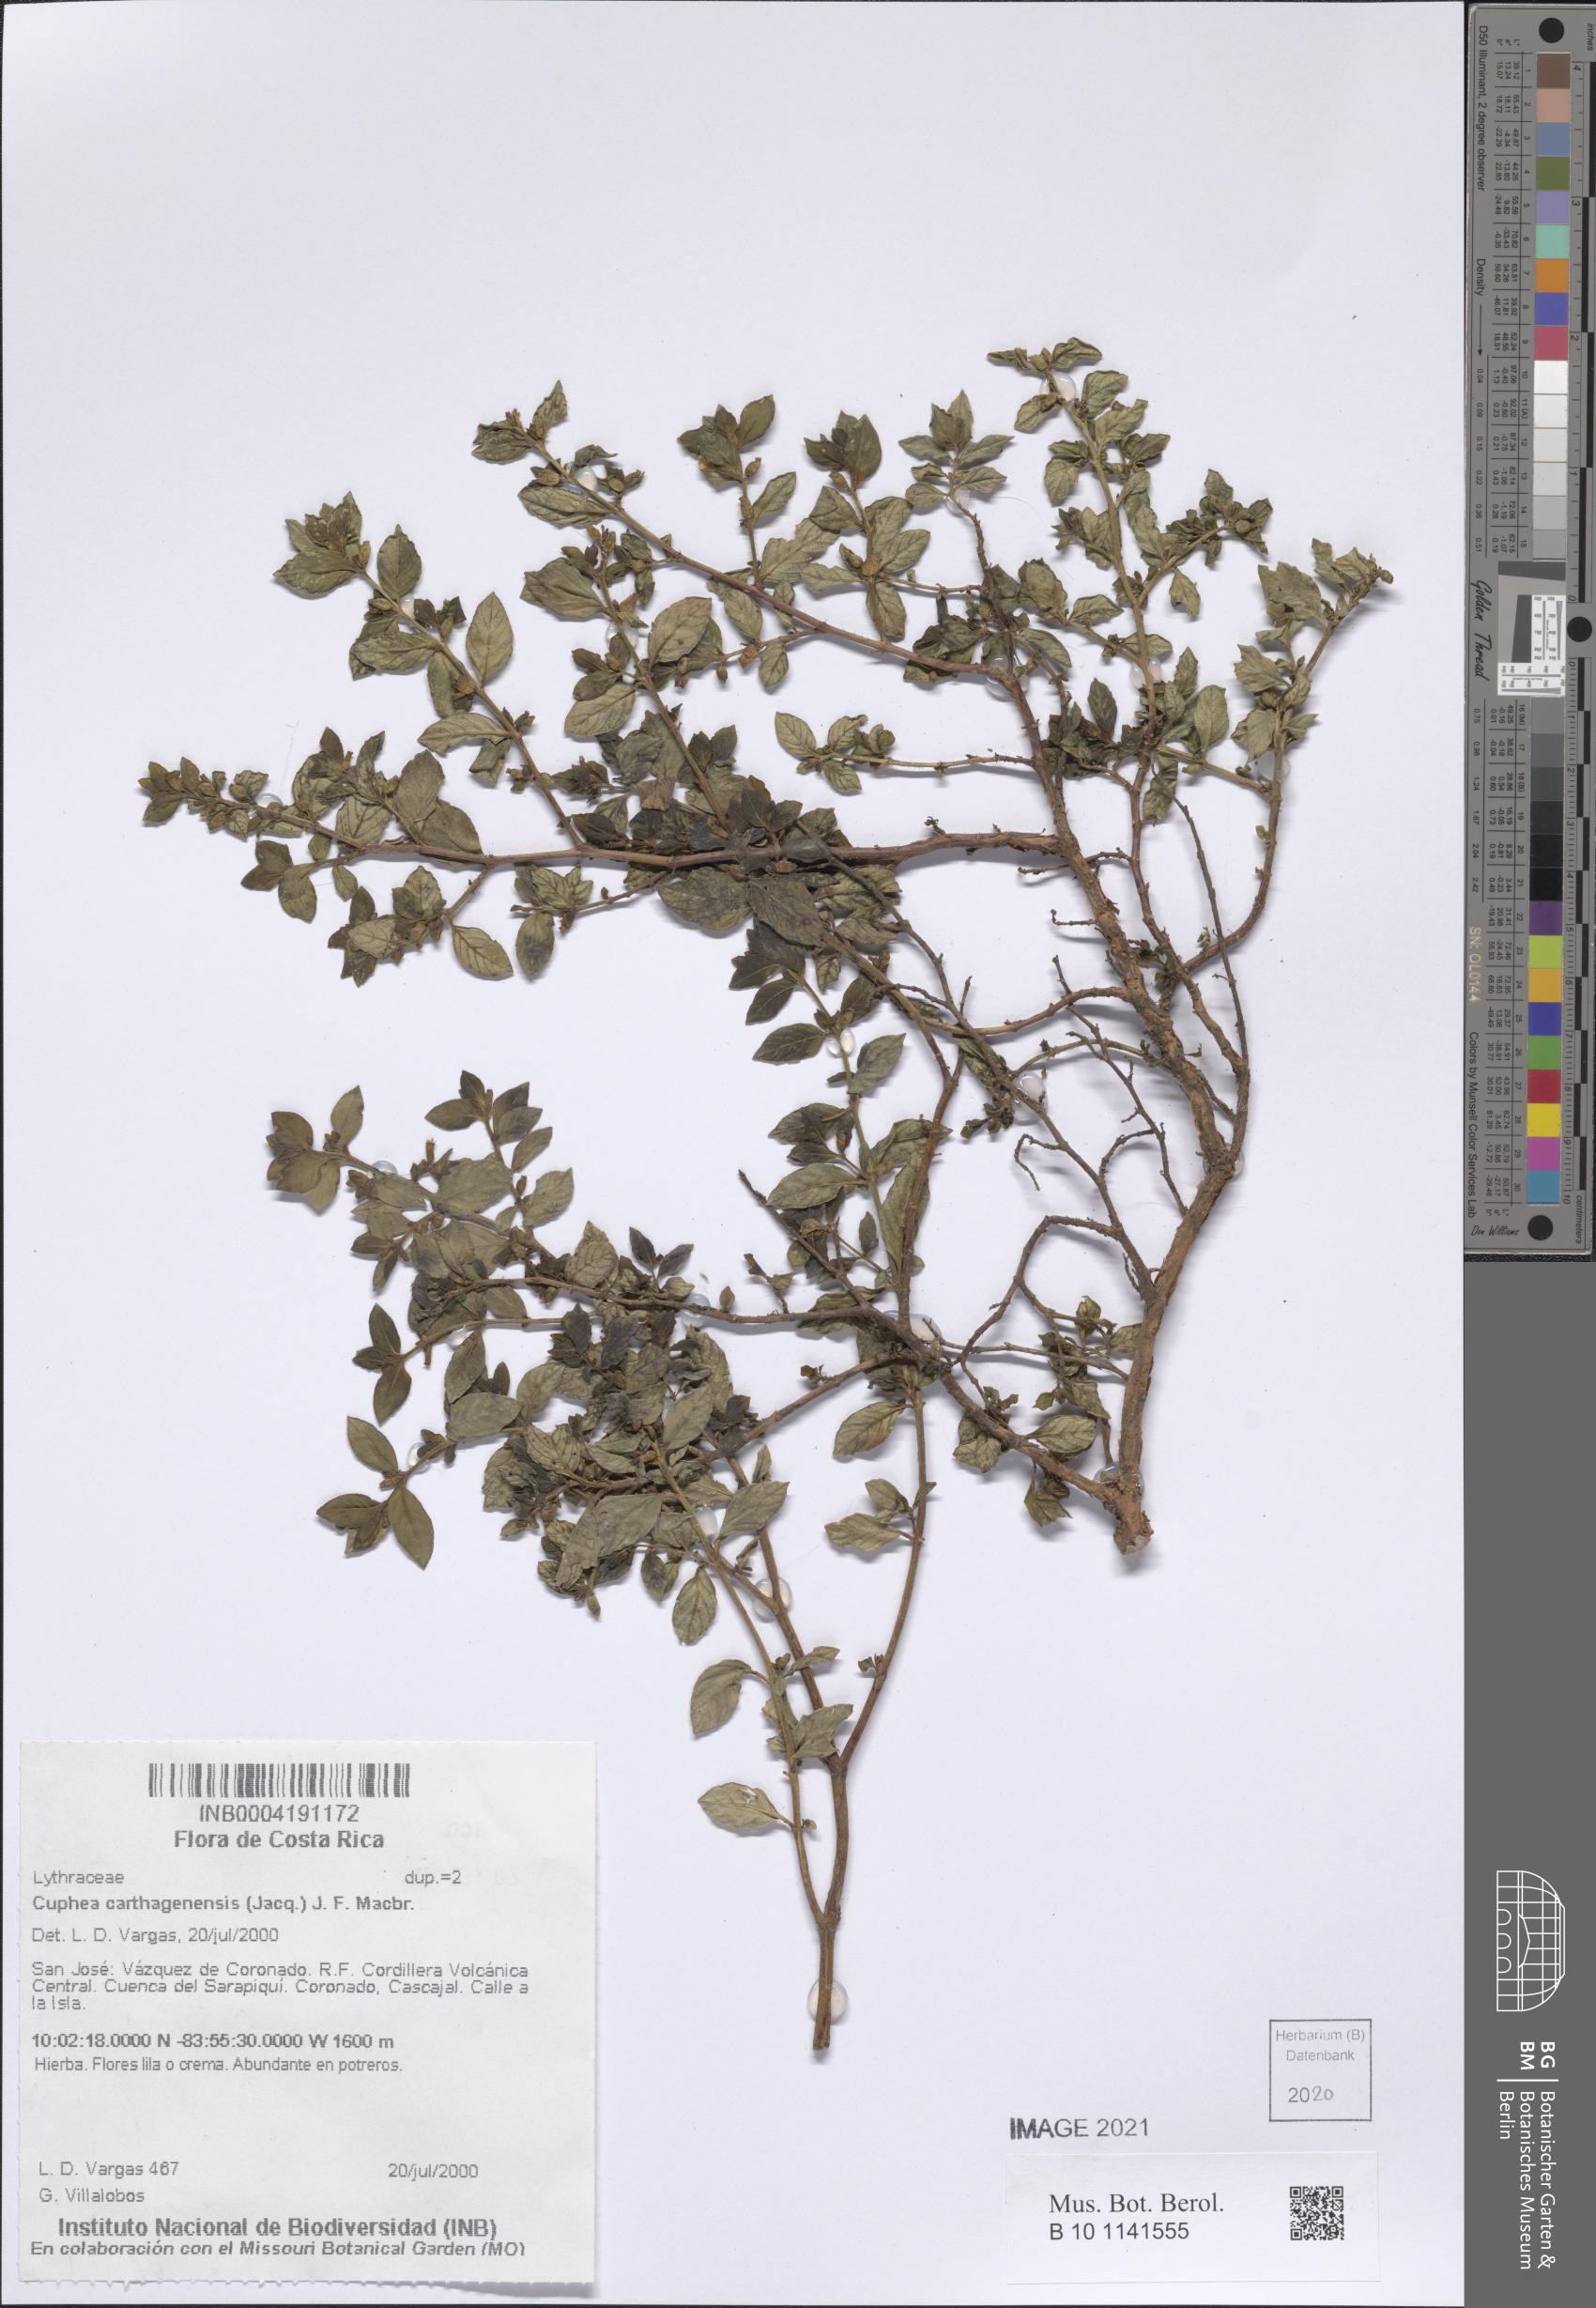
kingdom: Plantae
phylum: Tracheophyta
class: Magnoliopsida
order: Myrtales
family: Lythraceae
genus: Cuphea
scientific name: Cuphea carthagenensis
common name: Colombian waxweed
